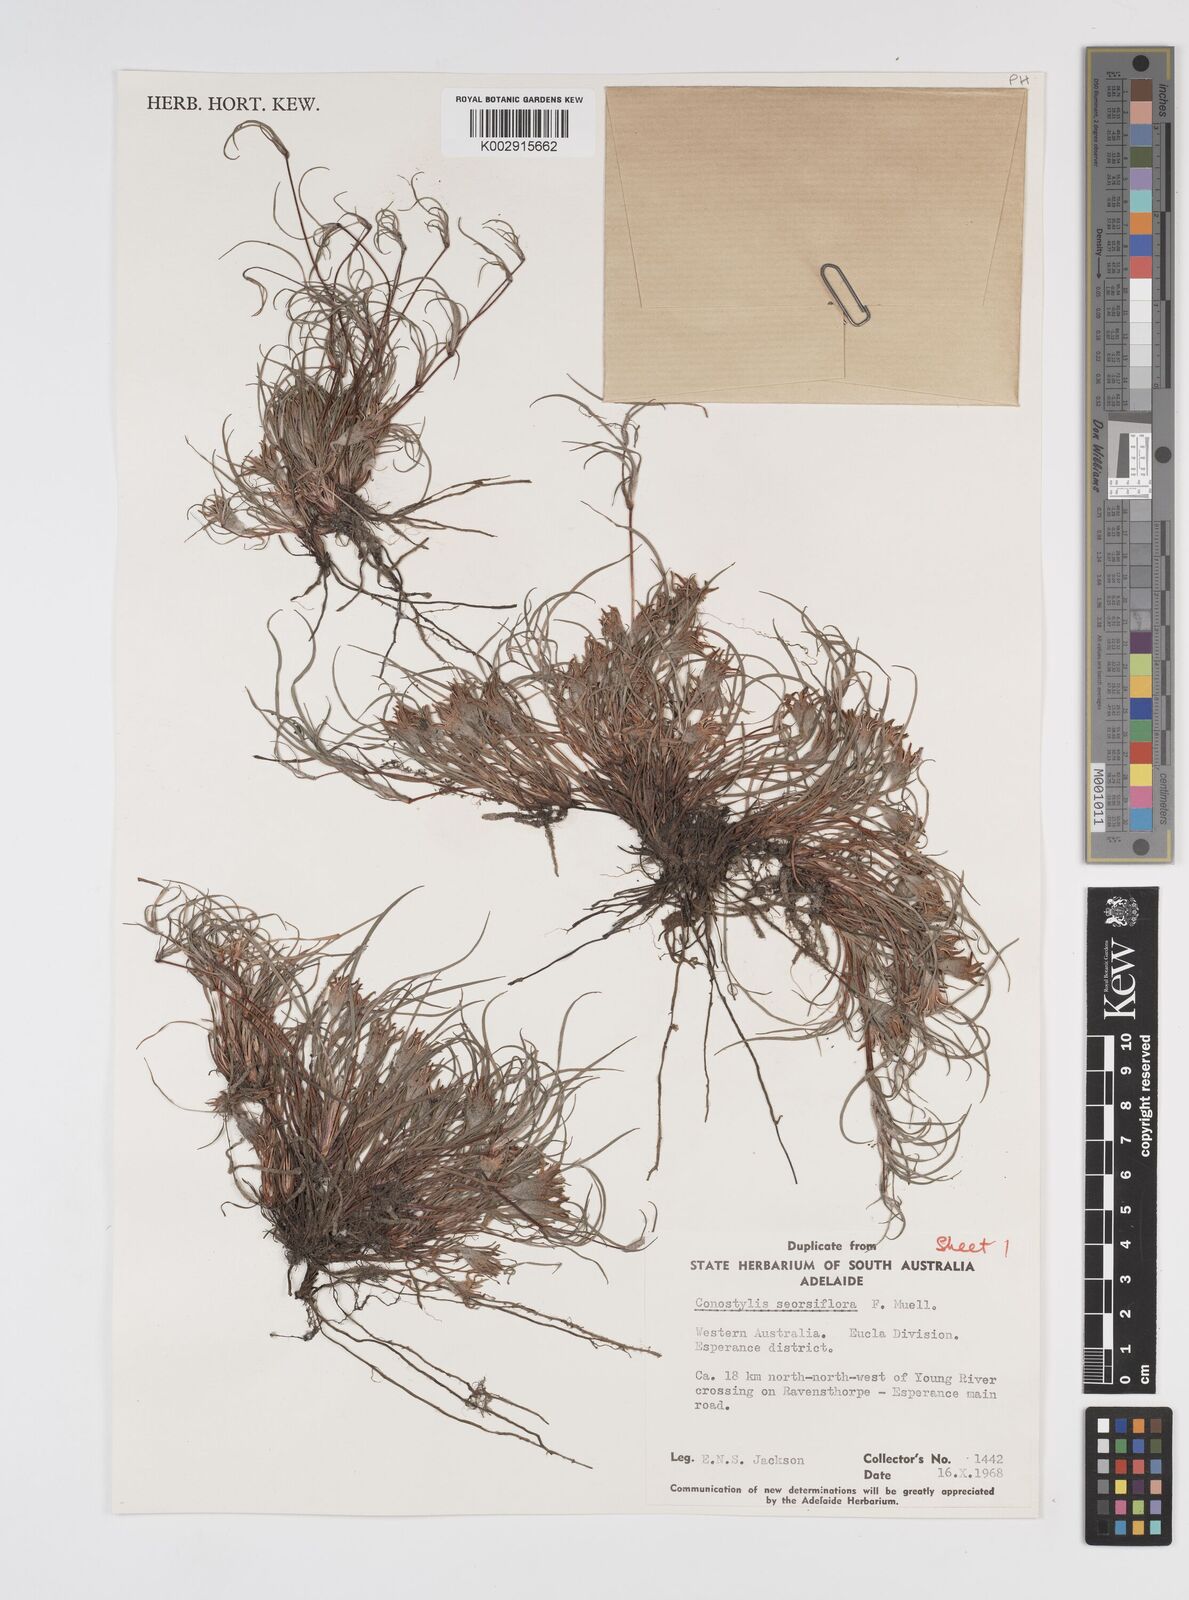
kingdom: Plantae
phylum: Tracheophyta
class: Liliopsida
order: Commelinales
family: Haemodoraceae
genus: Conostylis
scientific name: Conostylis seorsiflora
